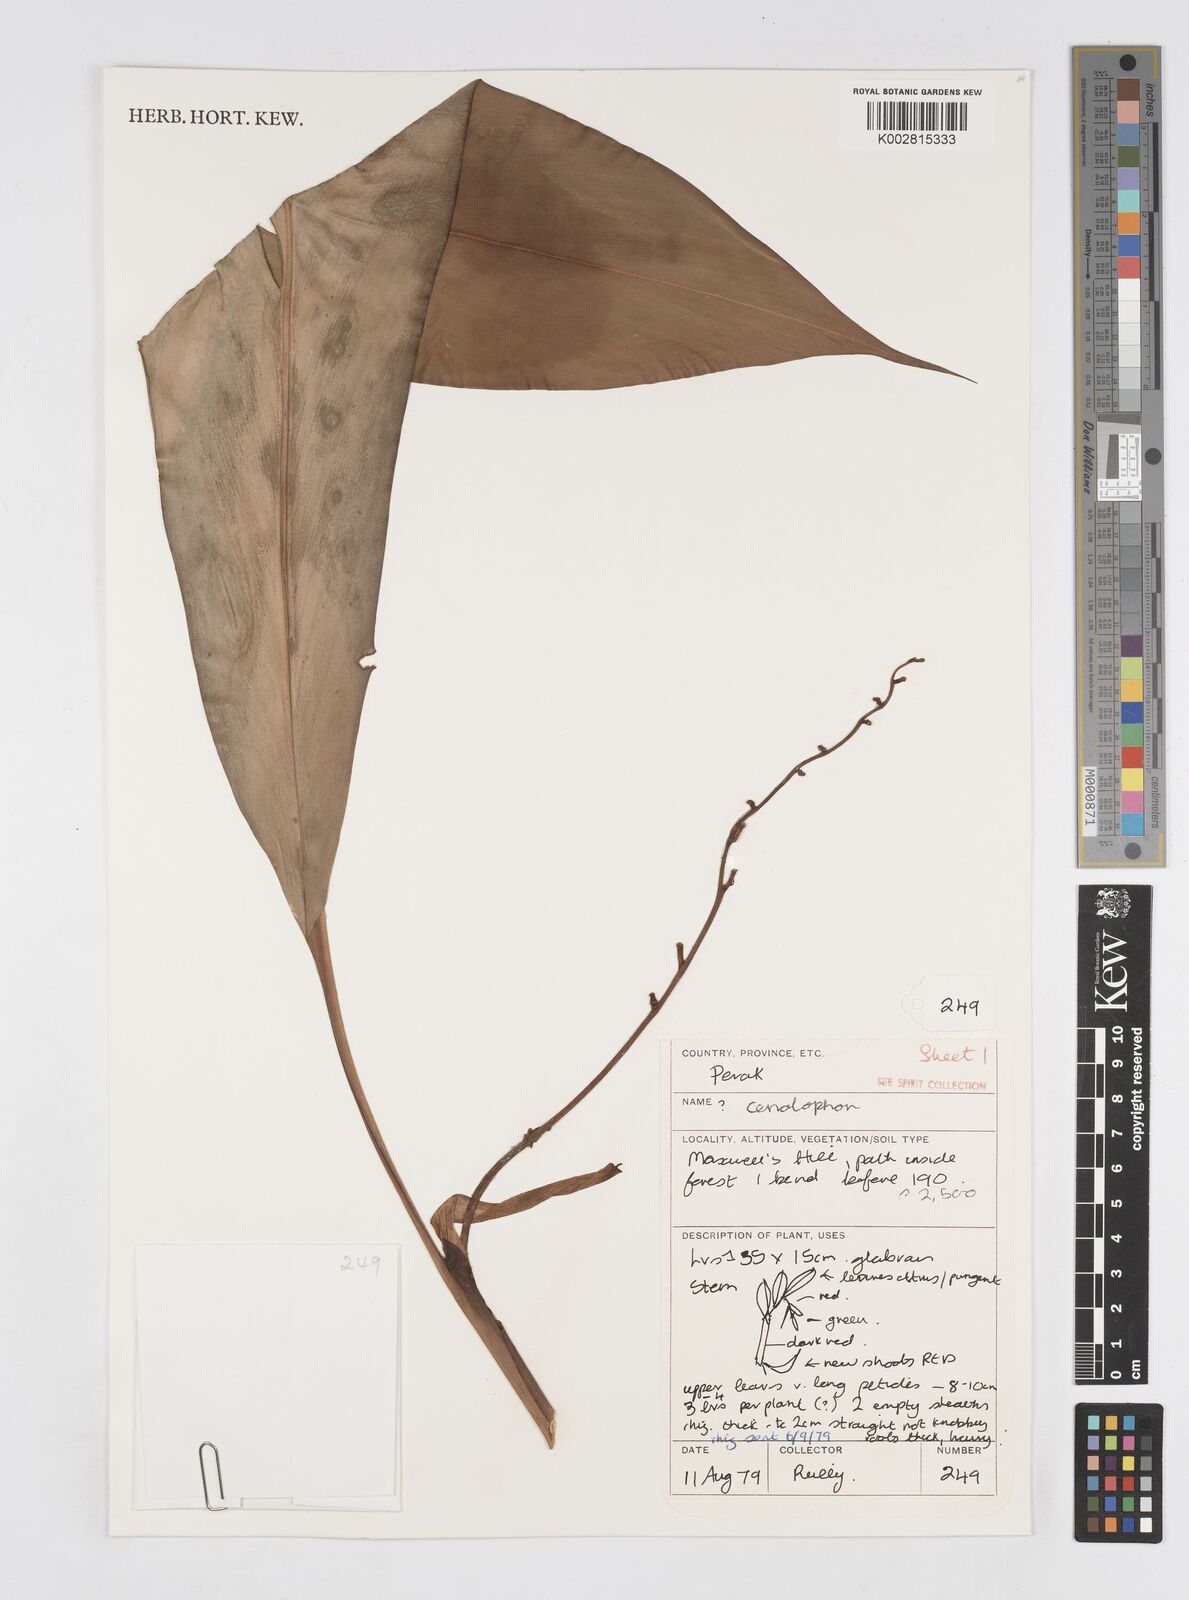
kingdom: Plantae
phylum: Tracheophyta
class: Liliopsida
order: Zingiberales
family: Zingiberaceae
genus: Alpinia
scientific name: Alpinia
